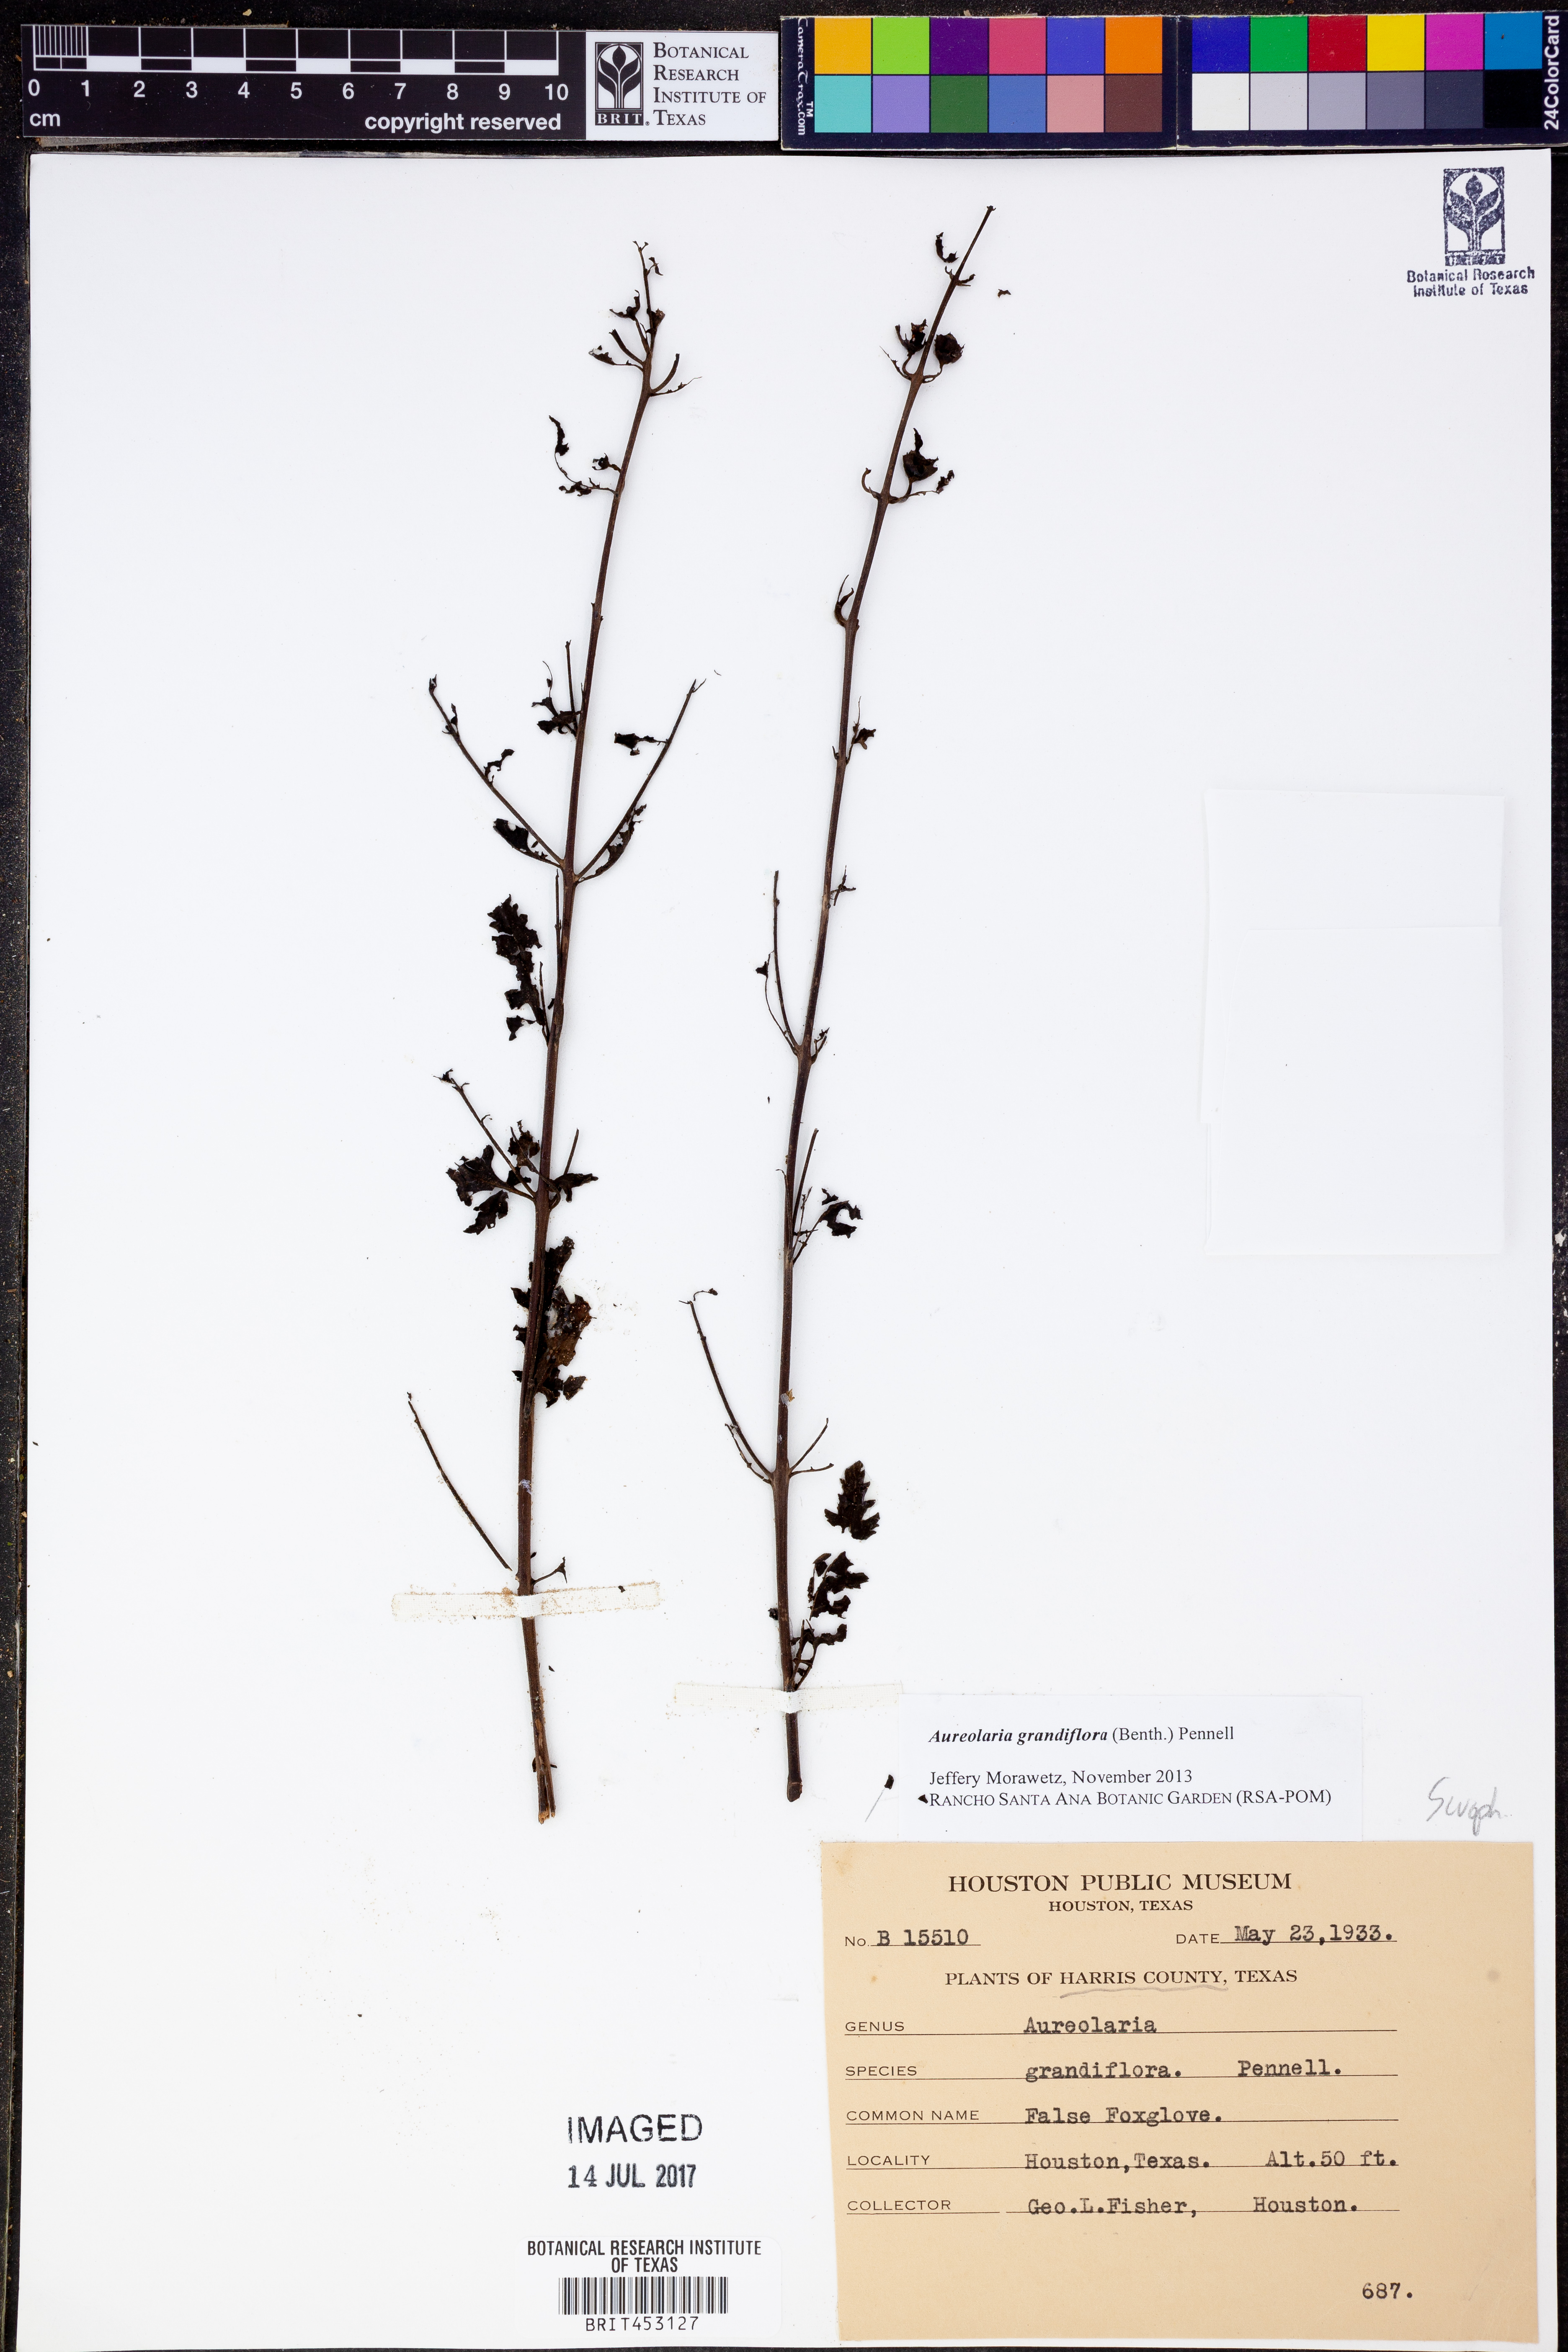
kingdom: Plantae
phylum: Tracheophyta
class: Magnoliopsida
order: Lamiales
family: Orobanchaceae
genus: Aureolaria
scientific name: Aureolaria grandiflora
